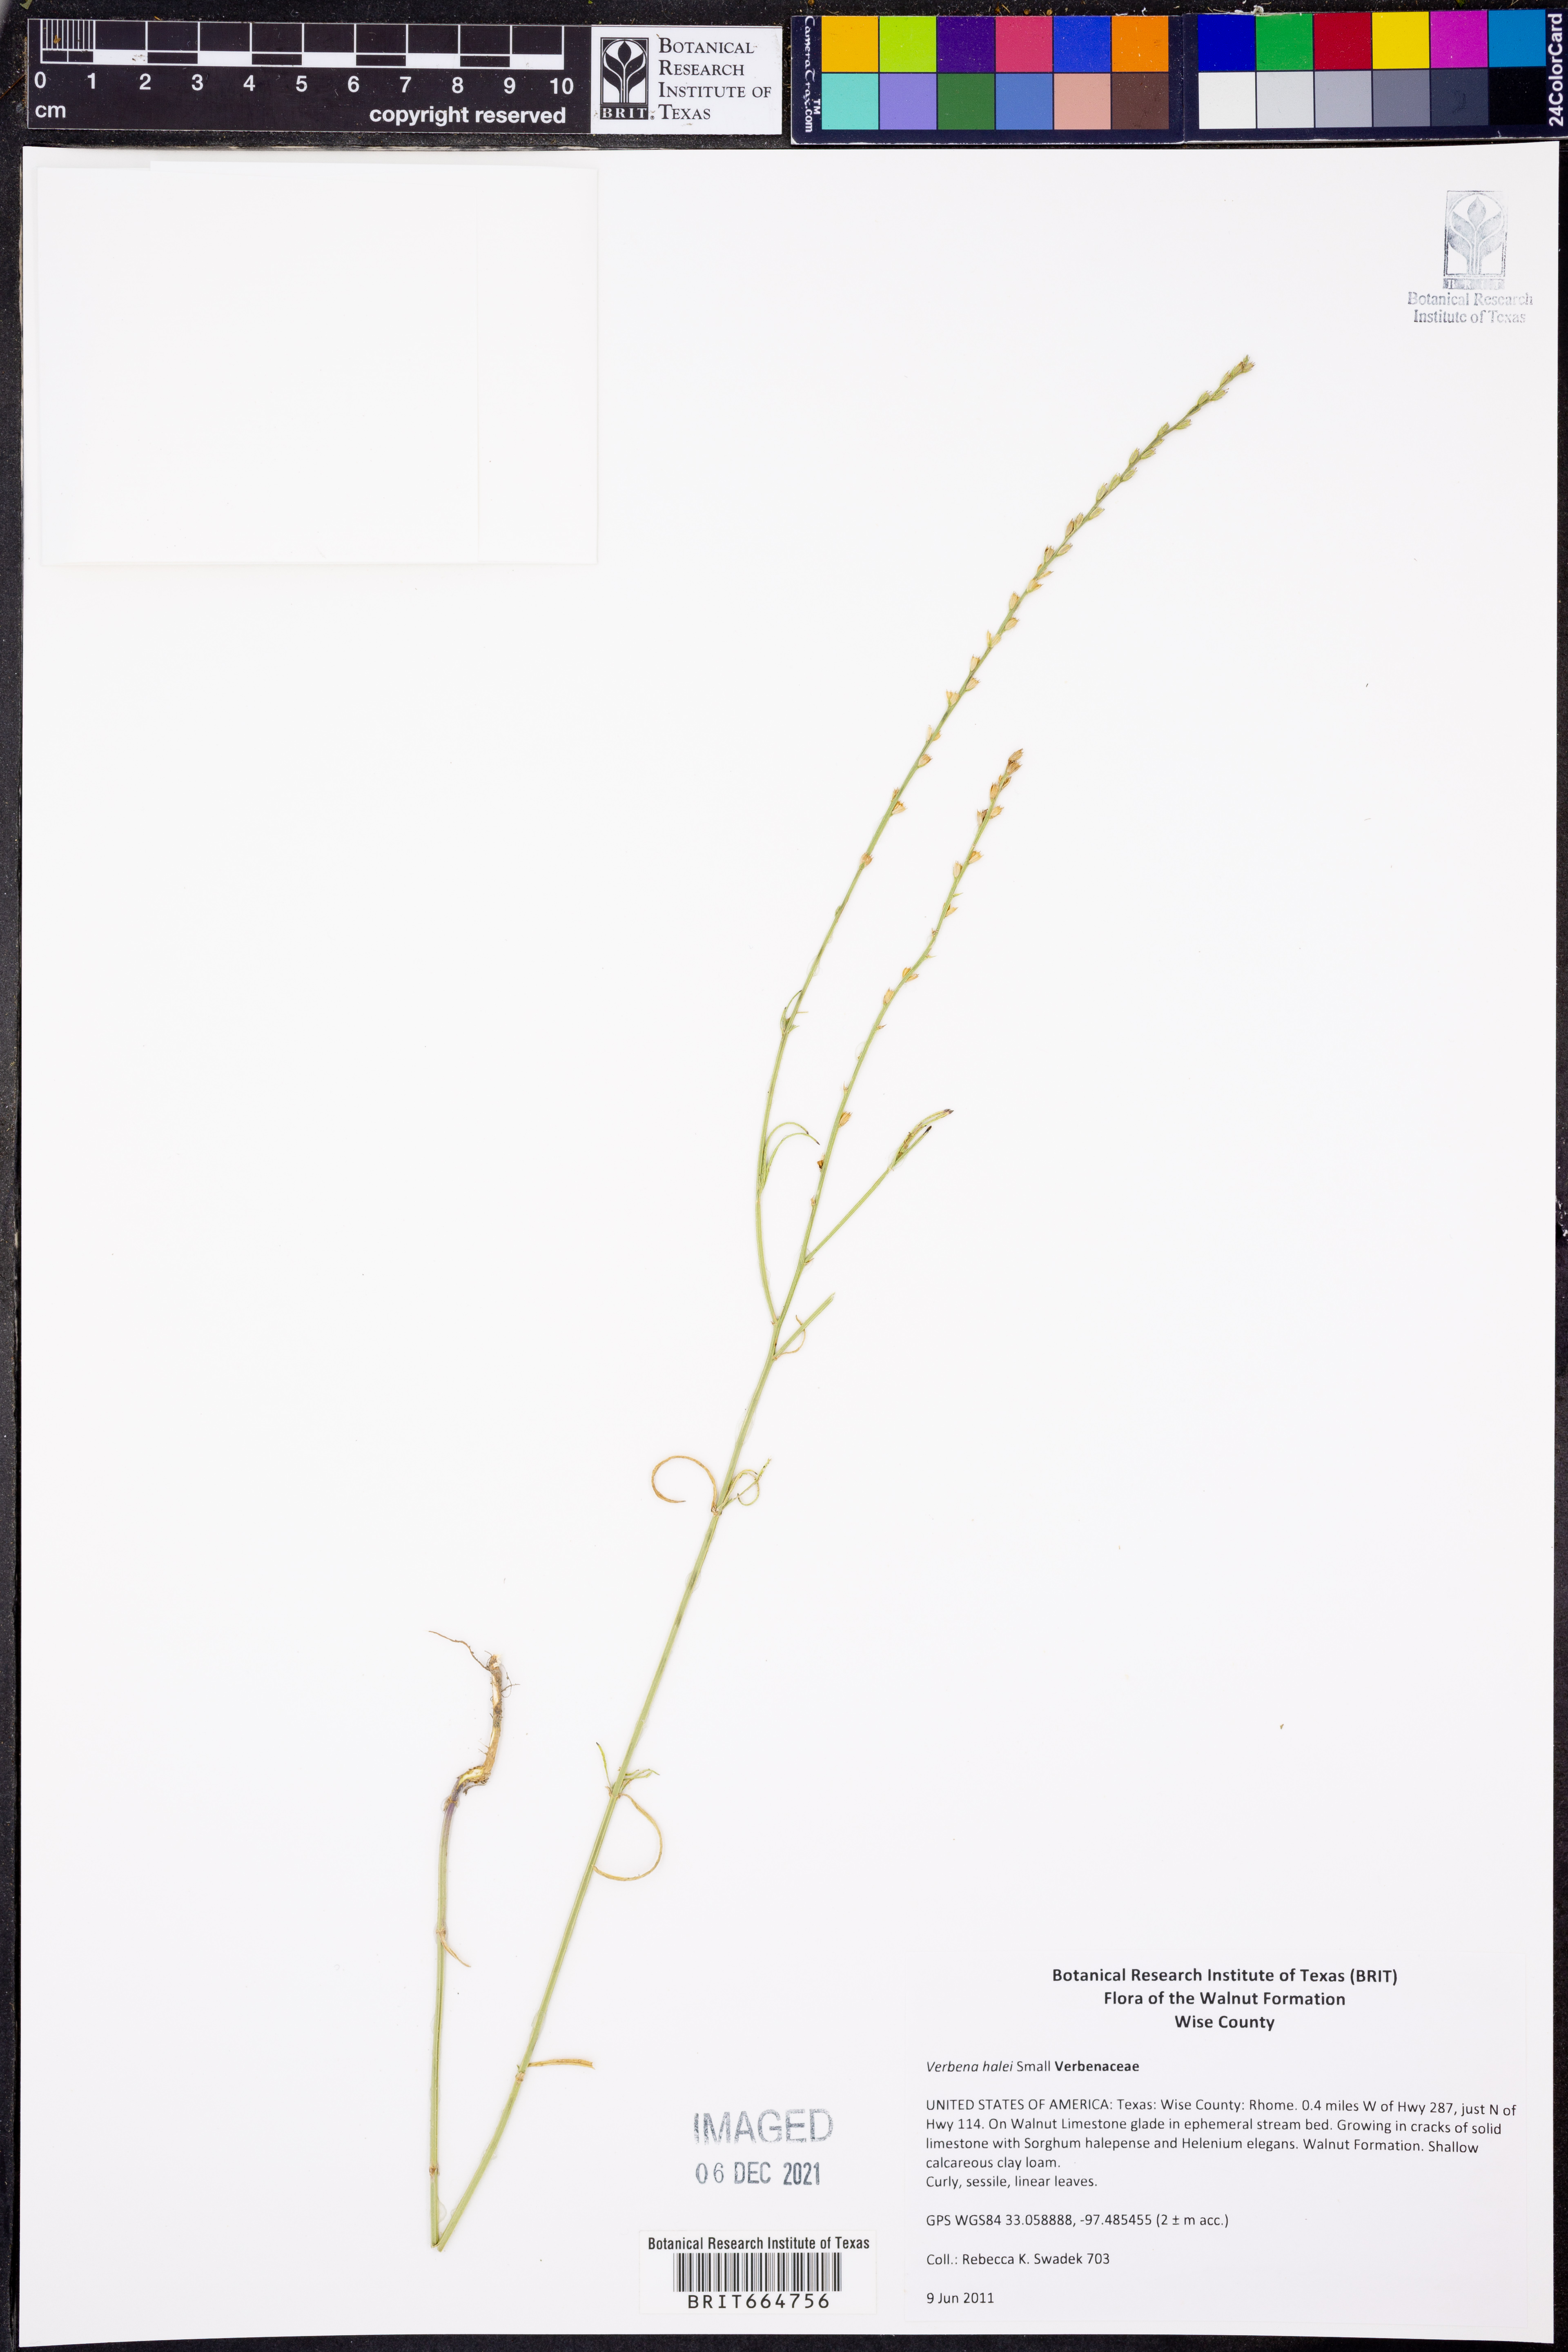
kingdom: Plantae
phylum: Tracheophyta
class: Magnoliopsida
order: Lamiales
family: Verbenaceae
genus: Verbena
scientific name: Verbena halei
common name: Texas vervain
